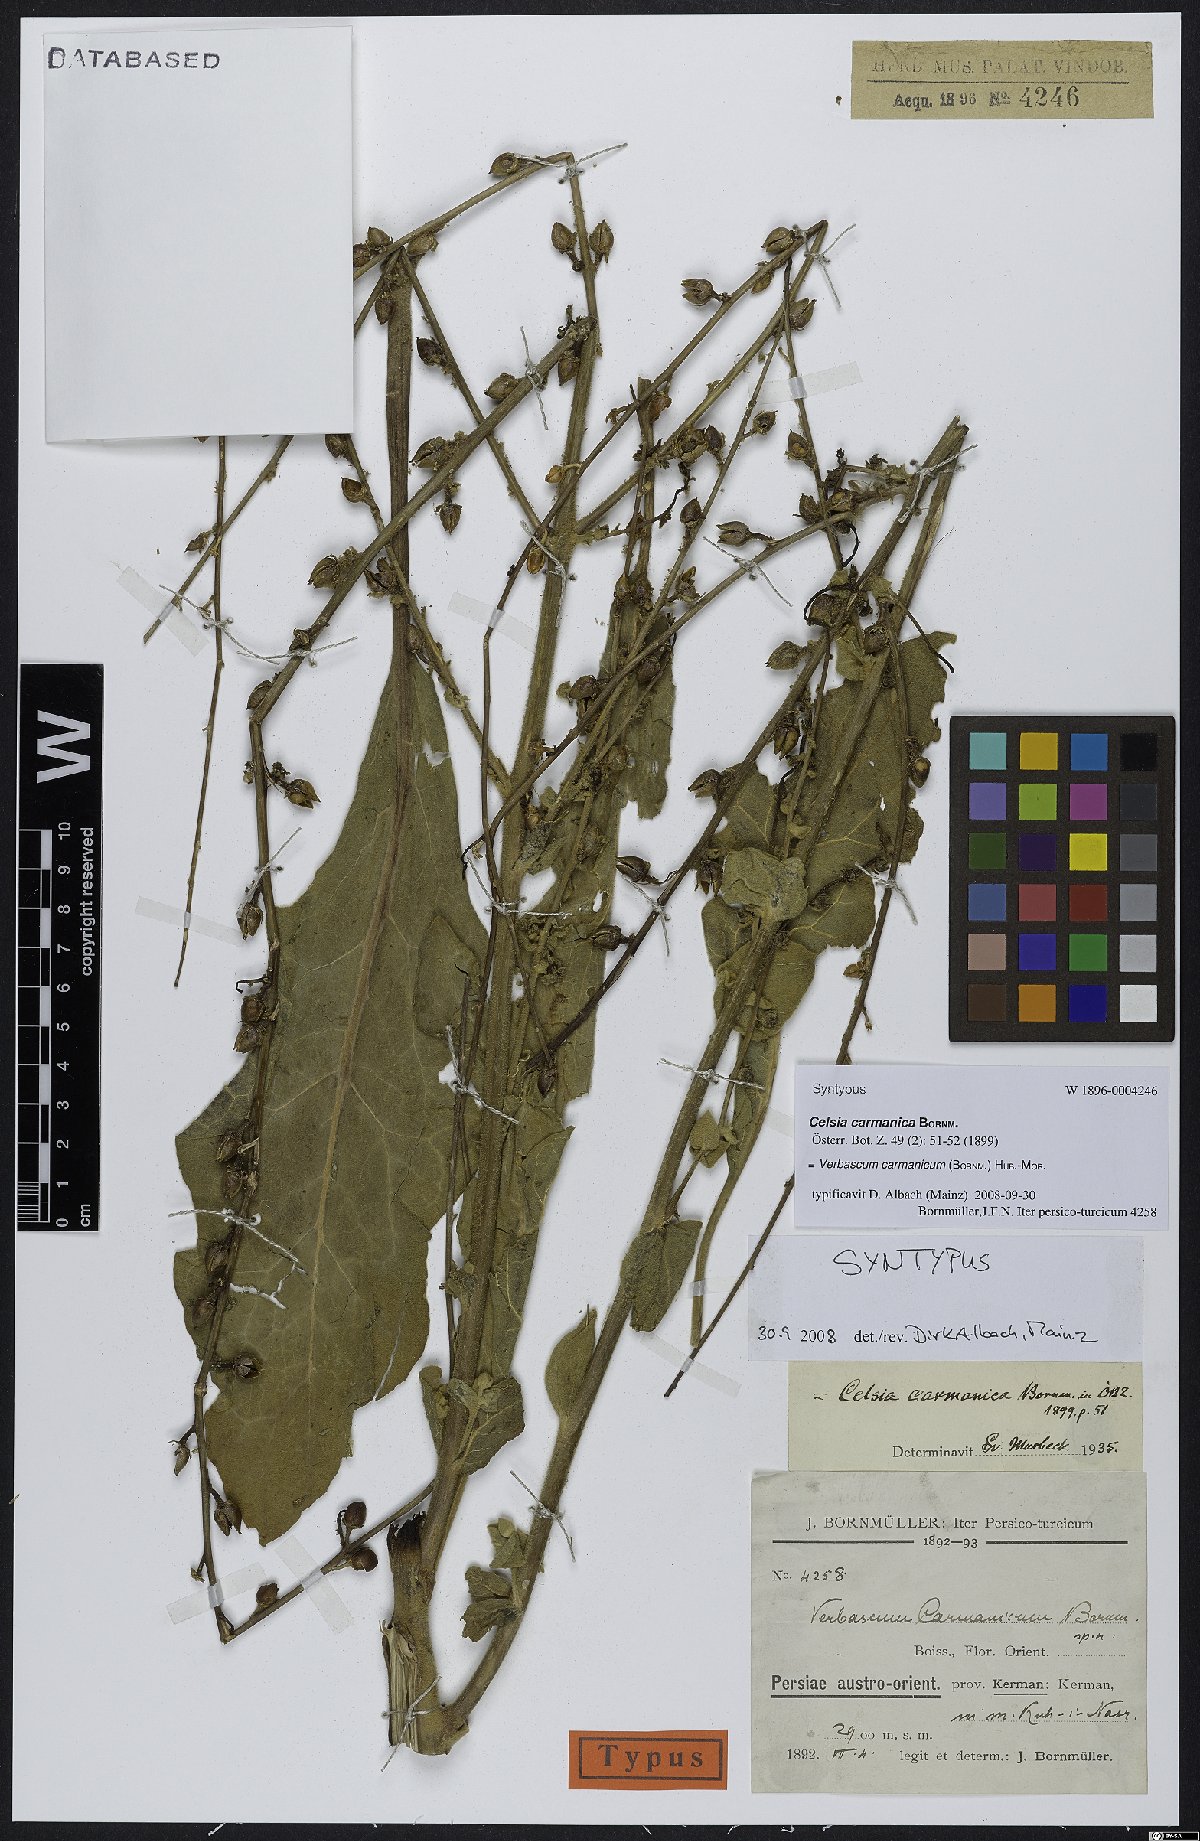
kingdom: Plantae
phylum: Tracheophyta
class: Magnoliopsida
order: Lamiales
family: Scrophulariaceae
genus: Verbascum
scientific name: Verbascum carmanicum
